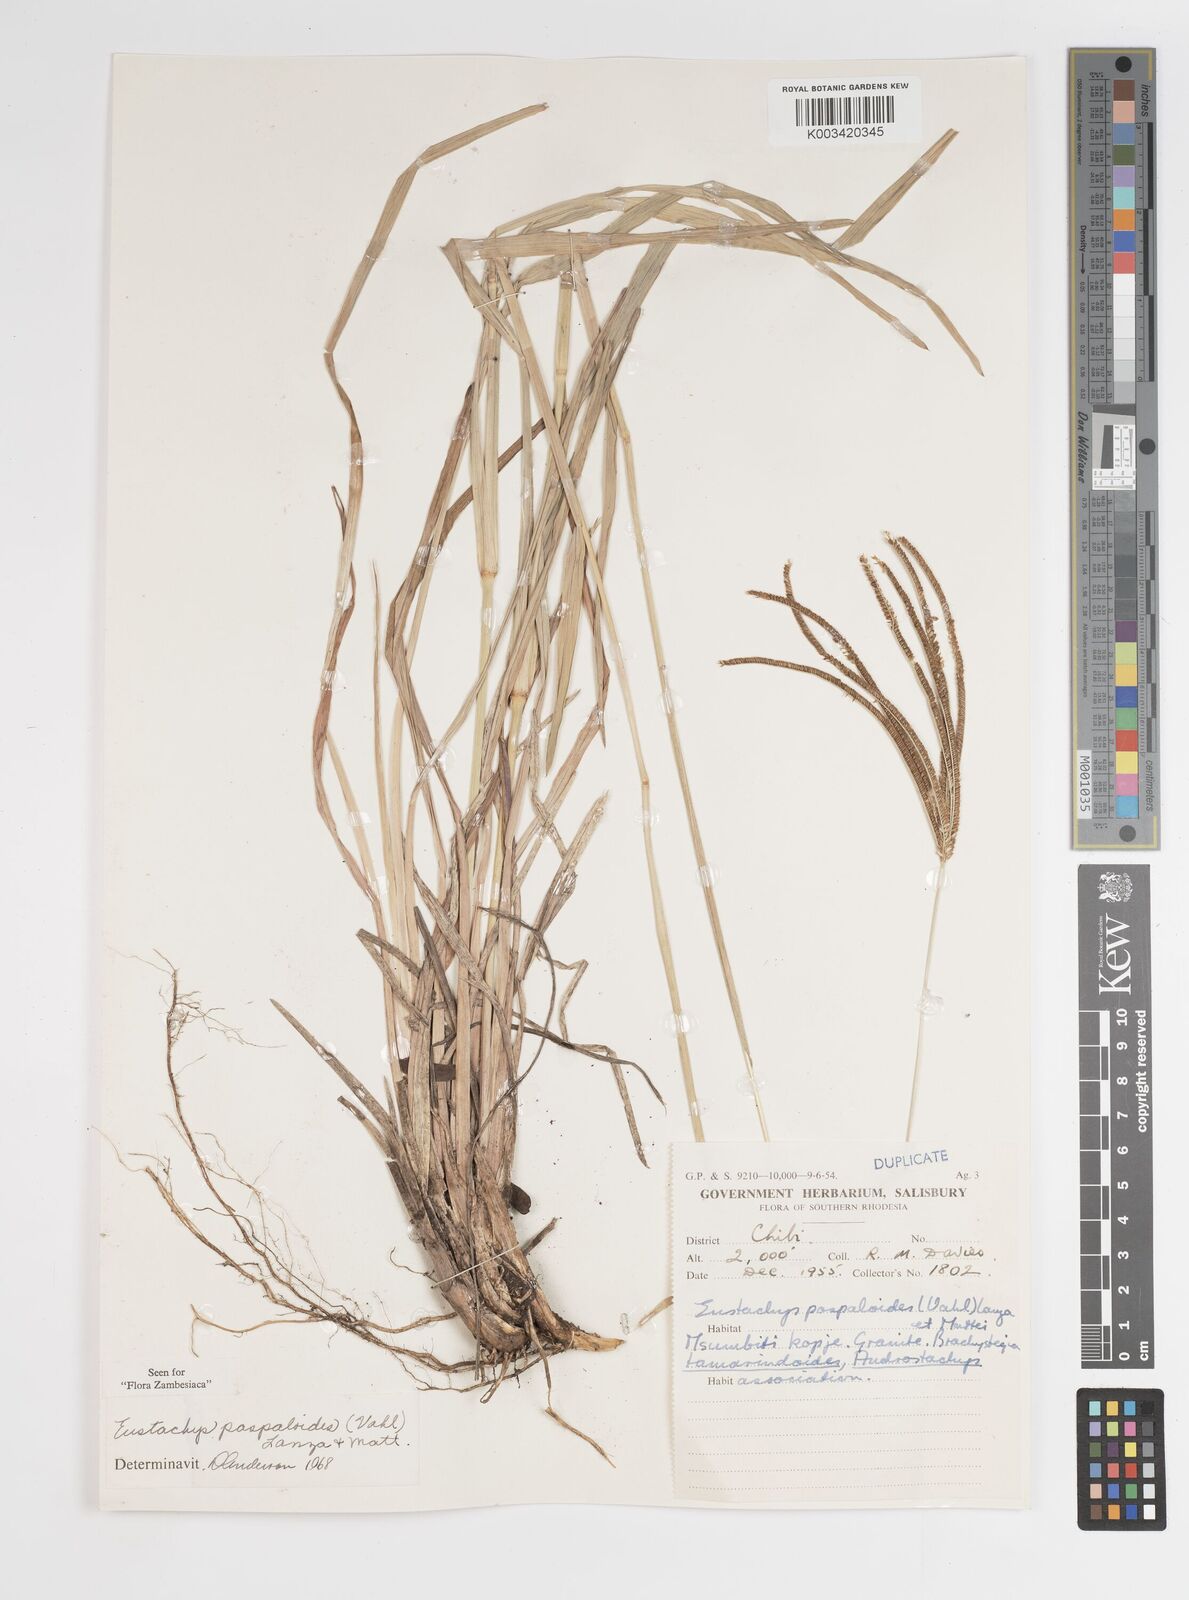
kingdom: Plantae
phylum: Tracheophyta
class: Liliopsida
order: Poales
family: Poaceae
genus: Eustachys
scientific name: Eustachys paspaloides
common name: Caribbean fingergrass
